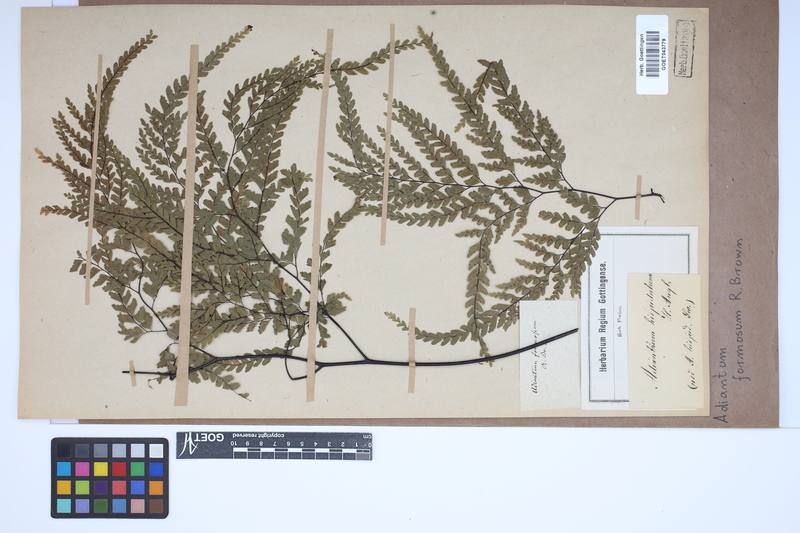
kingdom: Plantae
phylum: Tracheophyta
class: Polypodiopsida
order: Polypodiales
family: Pteridaceae
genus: Adiantum
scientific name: Adiantum formosum
